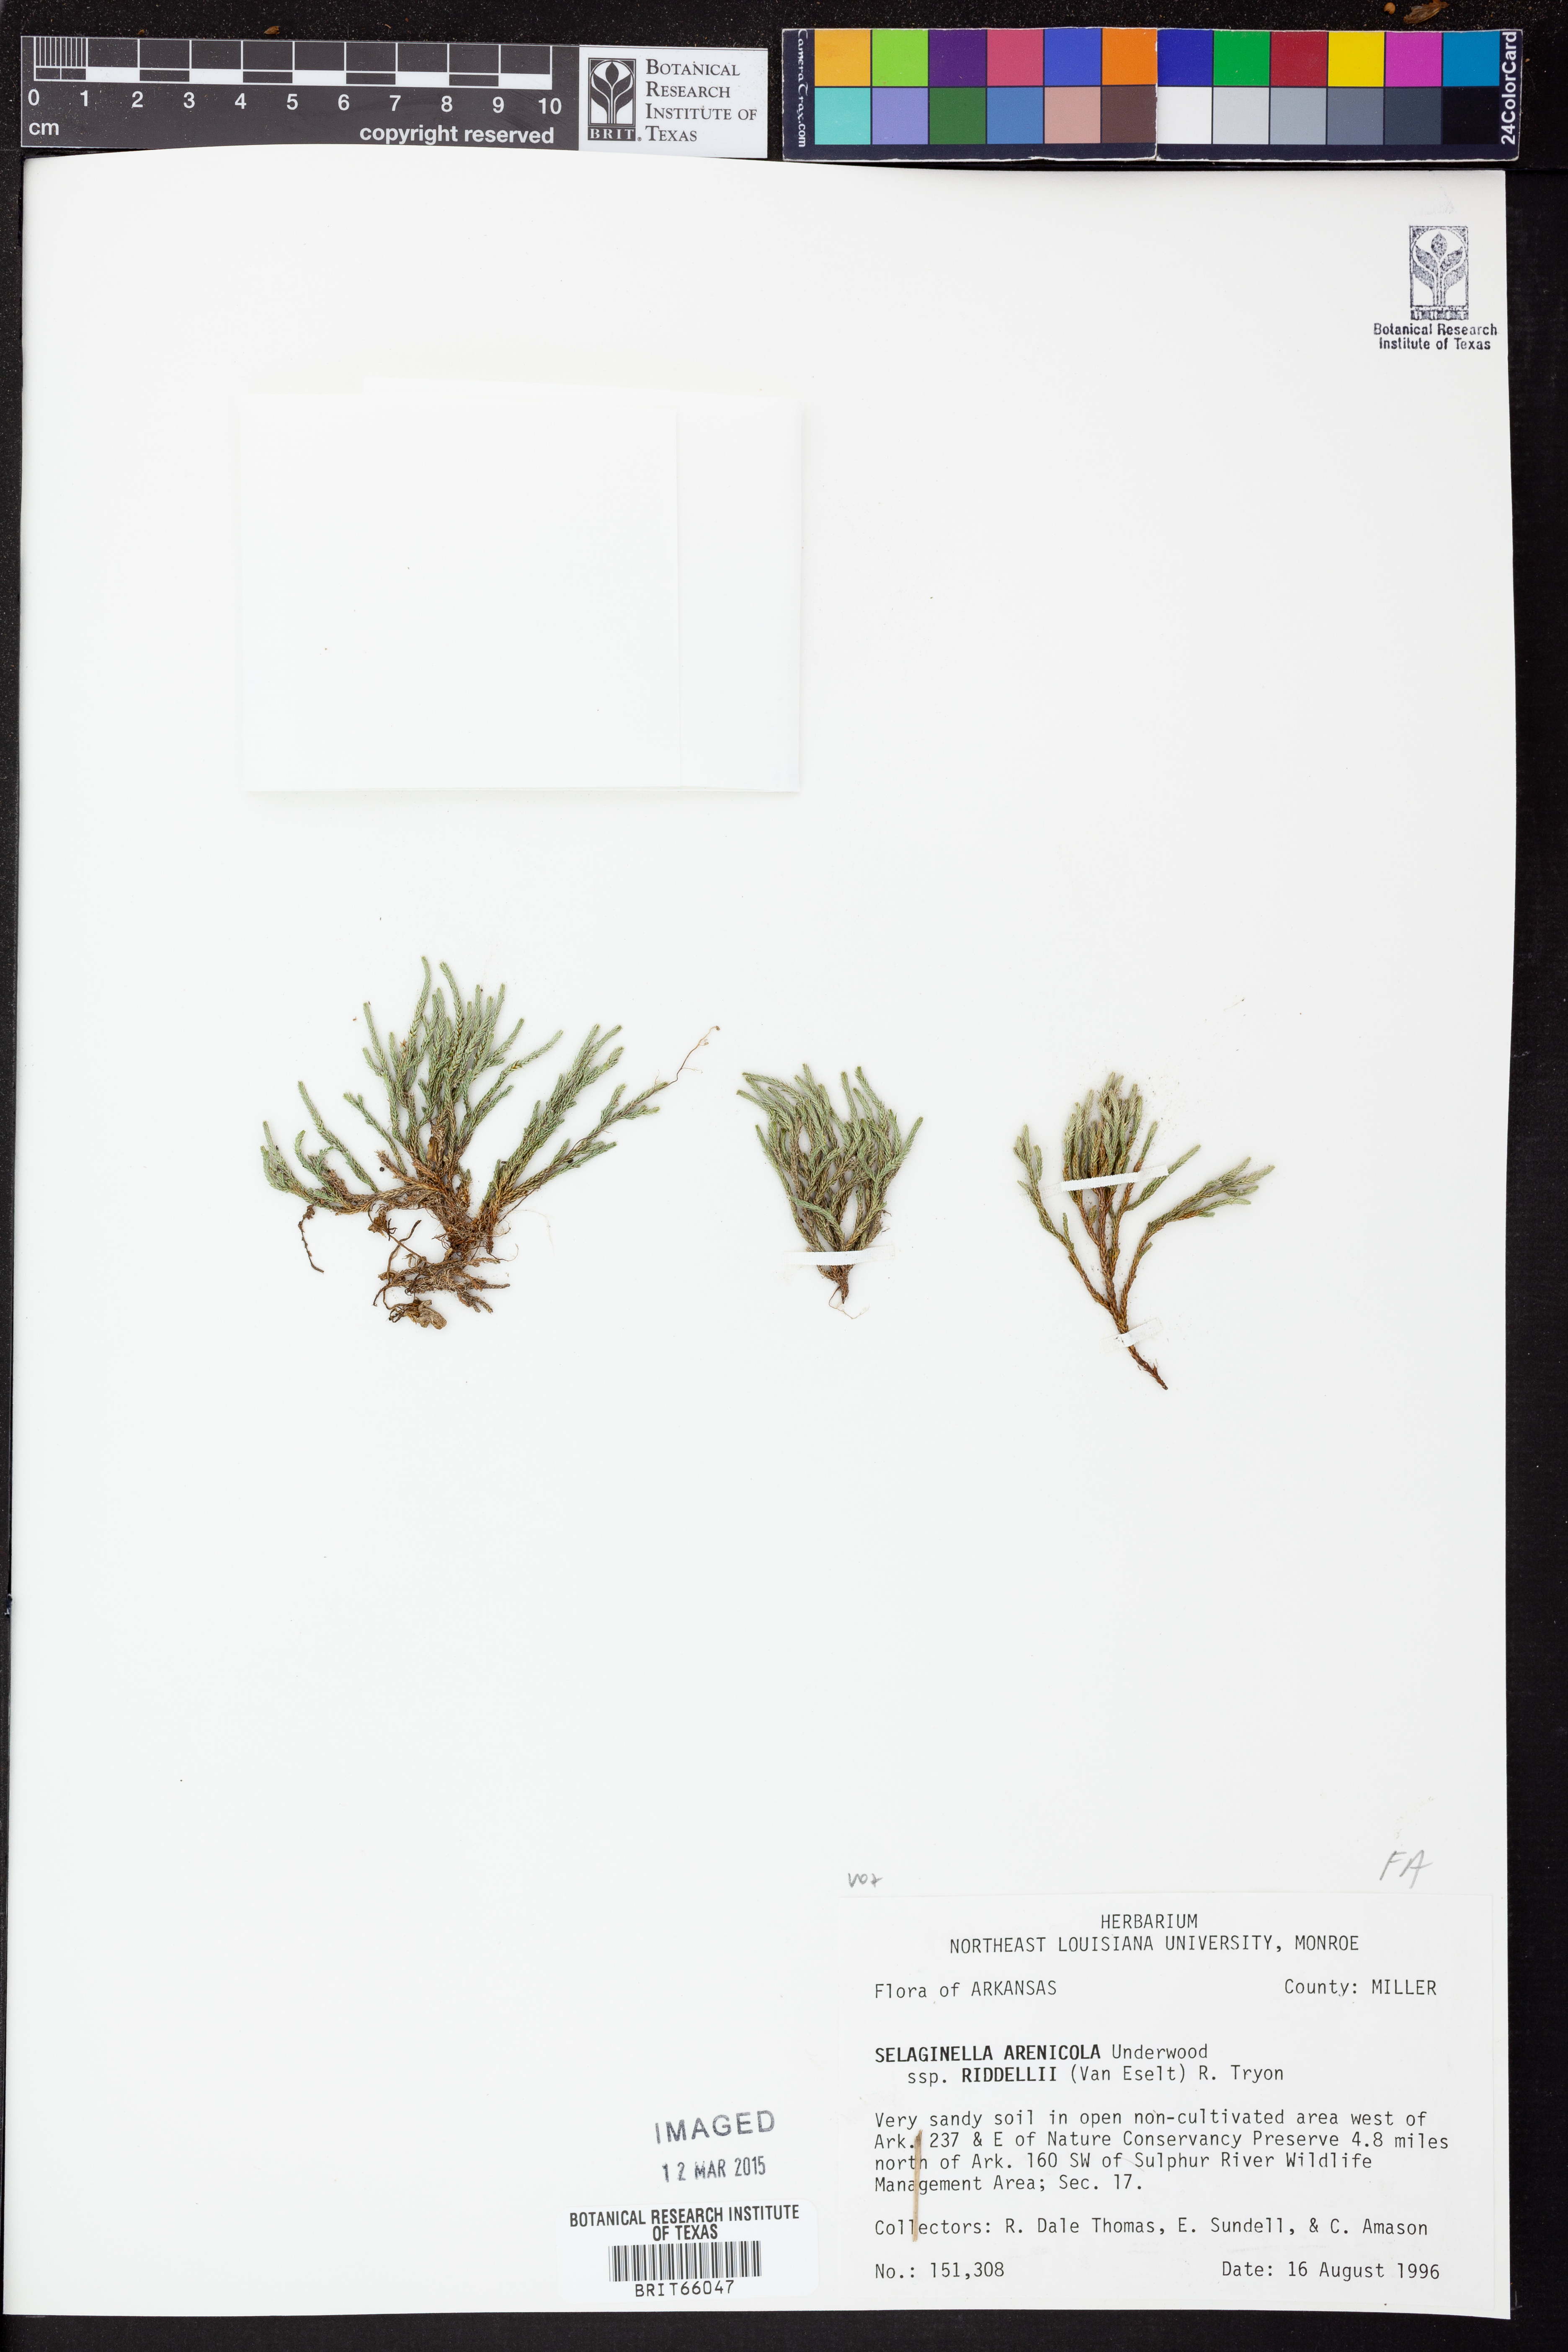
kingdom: Plantae
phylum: Tracheophyta
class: Lycopodiopsida
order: Selaginellales
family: Selaginellaceae
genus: Selaginella
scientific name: Selaginella corallina
